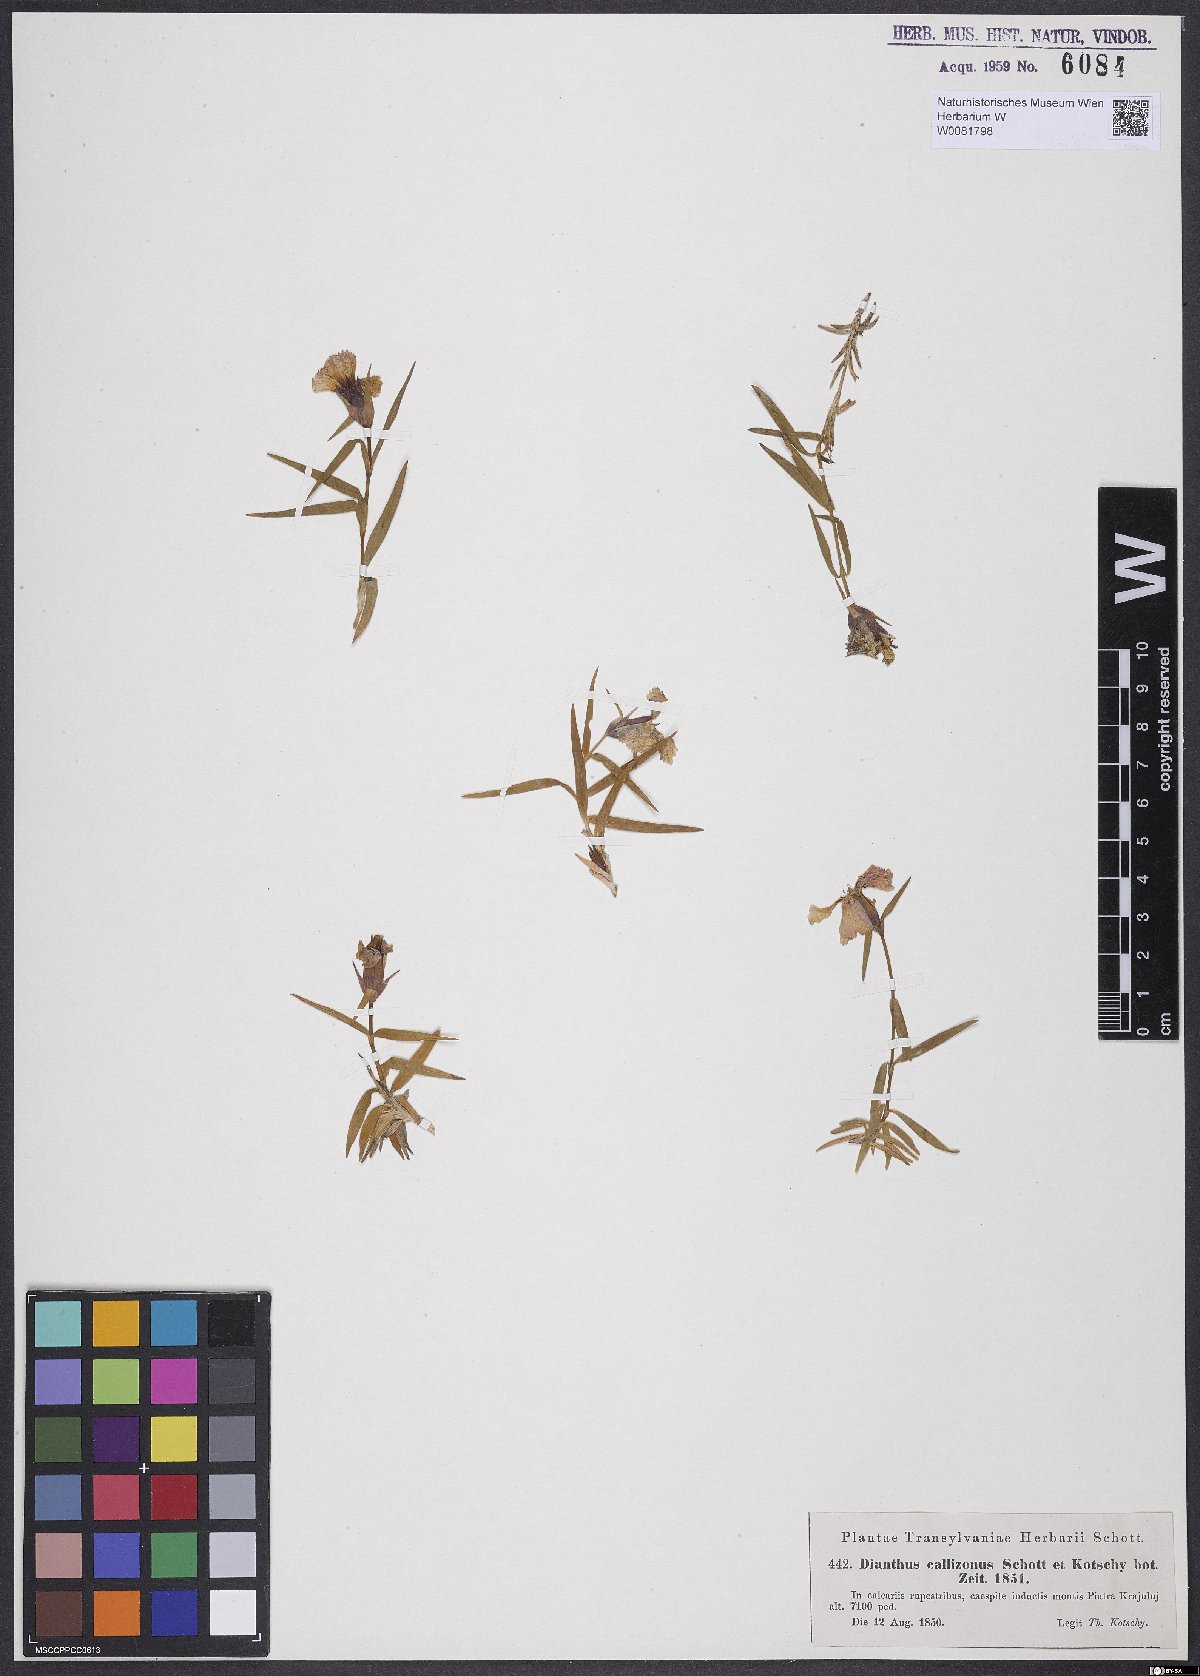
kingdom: Plantae
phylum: Tracheophyta
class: Magnoliopsida
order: Caryophyllales
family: Caryophyllaceae
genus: Dianthus
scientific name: Dianthus callizonus
